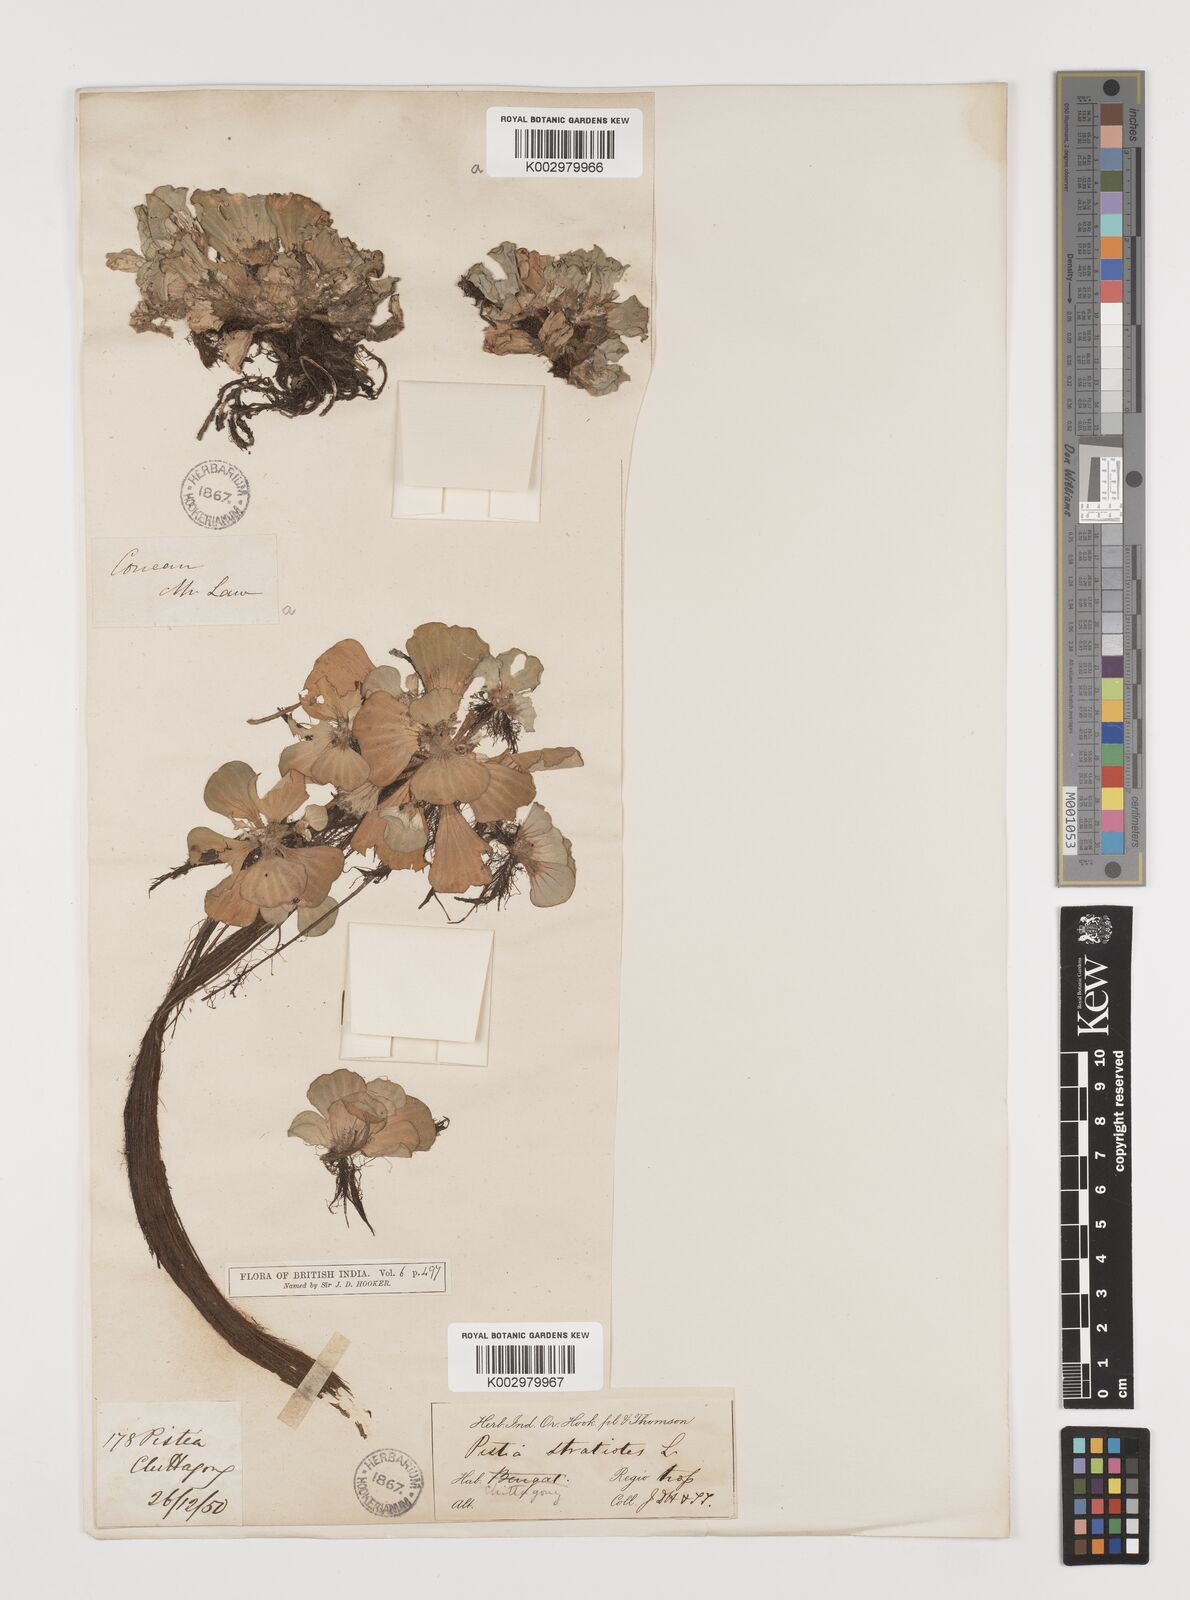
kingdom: Plantae
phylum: Tracheophyta
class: Liliopsida
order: Alismatales
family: Araceae
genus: Pistia
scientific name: Pistia stratiotes
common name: Water lettuce
